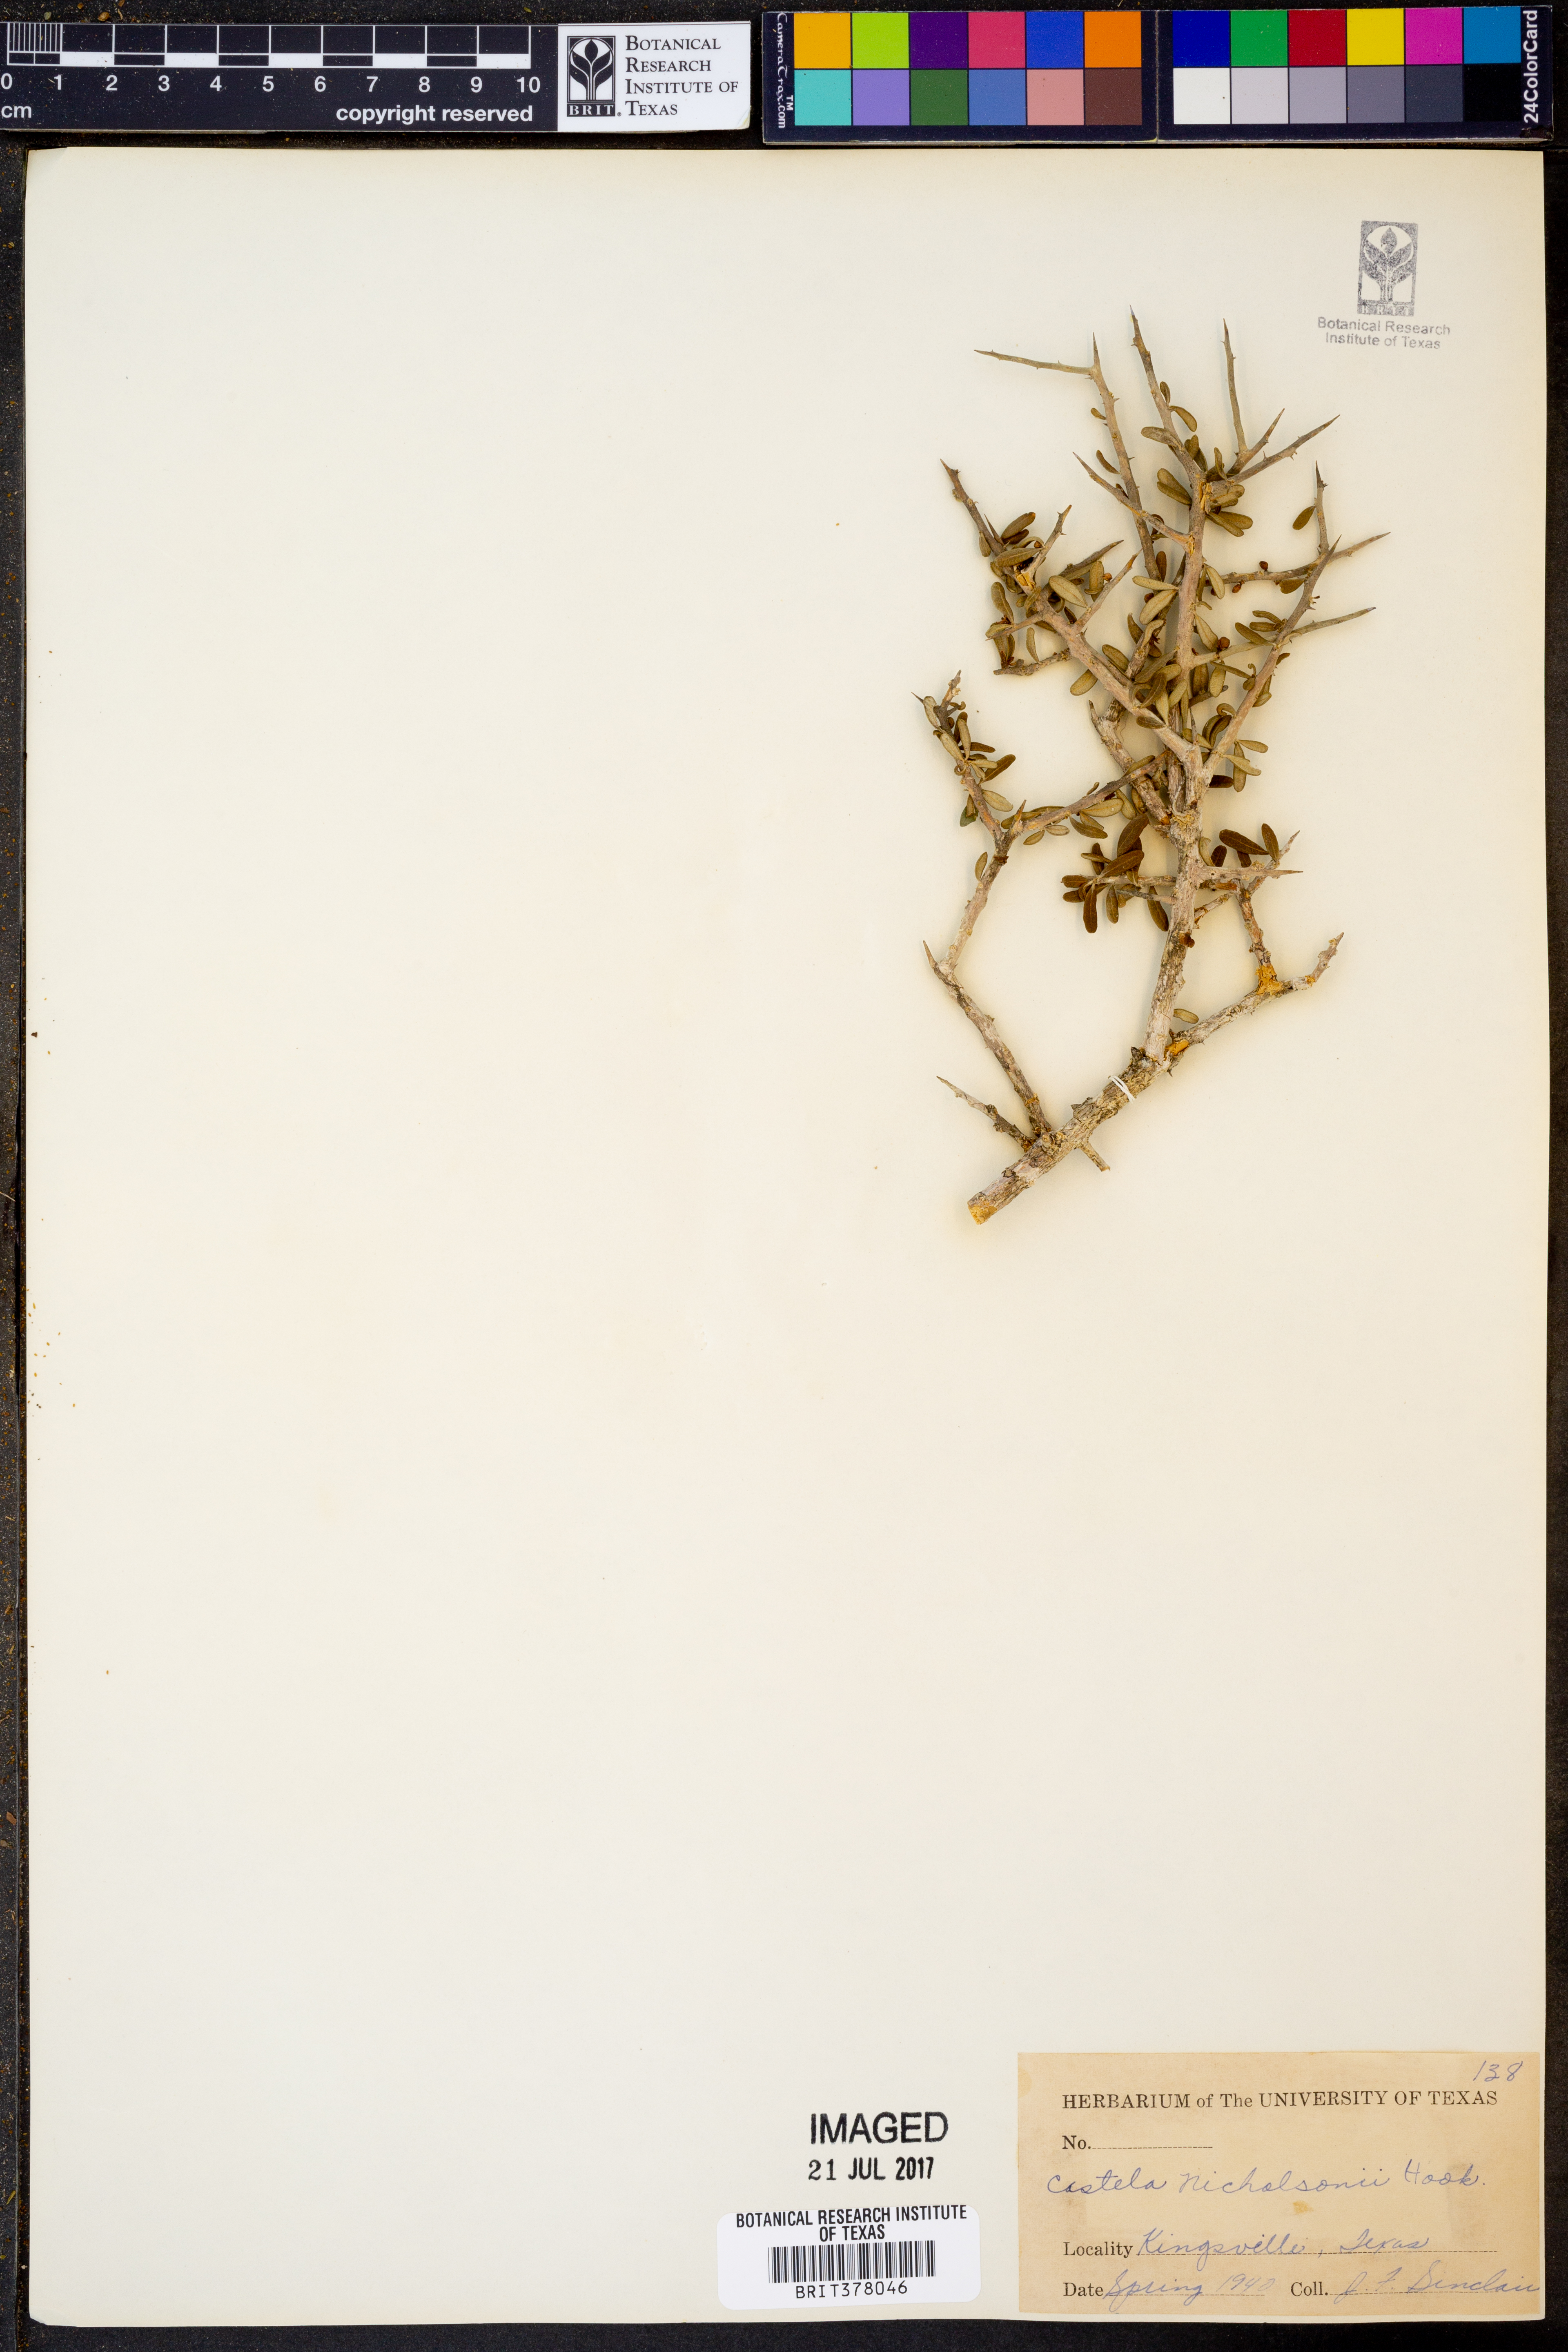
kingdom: Plantae
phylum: Tracheophyta
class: Magnoliopsida
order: Sapindales
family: Simaroubaceae
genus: Castela
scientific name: Castela erecta
